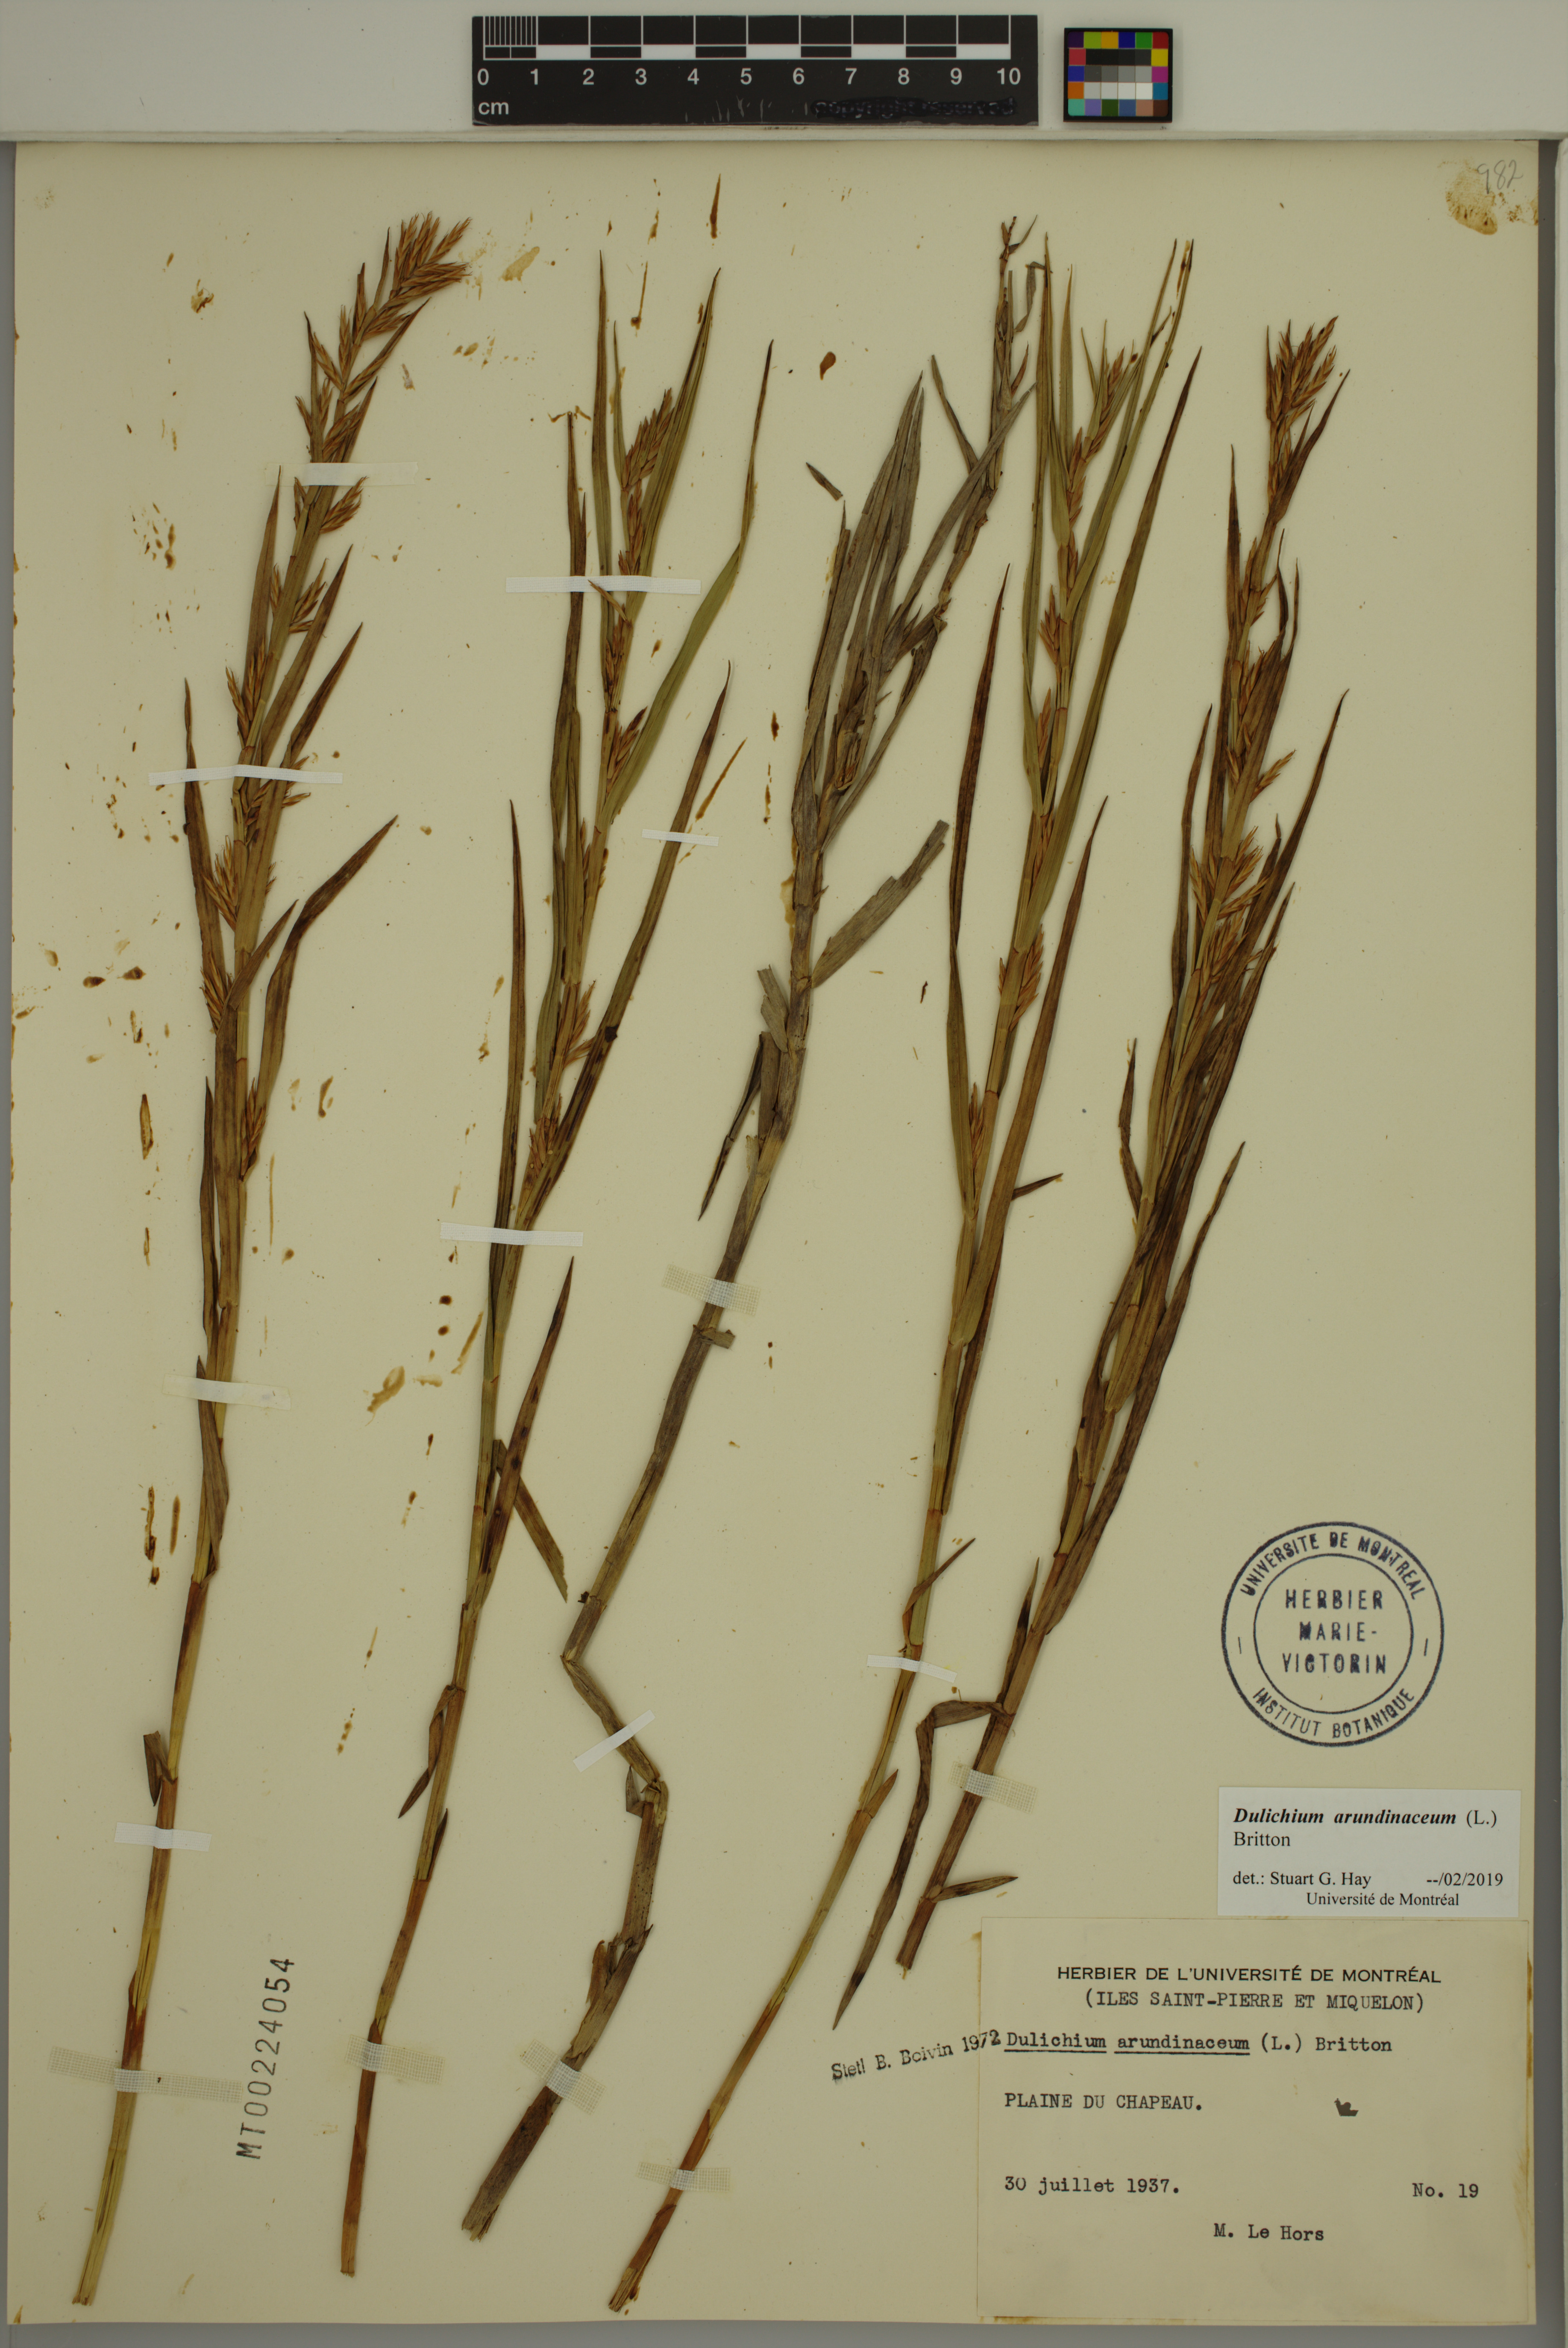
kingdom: Plantae
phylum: Tracheophyta
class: Liliopsida
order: Poales
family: Cyperaceae
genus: Dulichium
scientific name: Dulichium arundinaceum
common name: Three-way sedge
